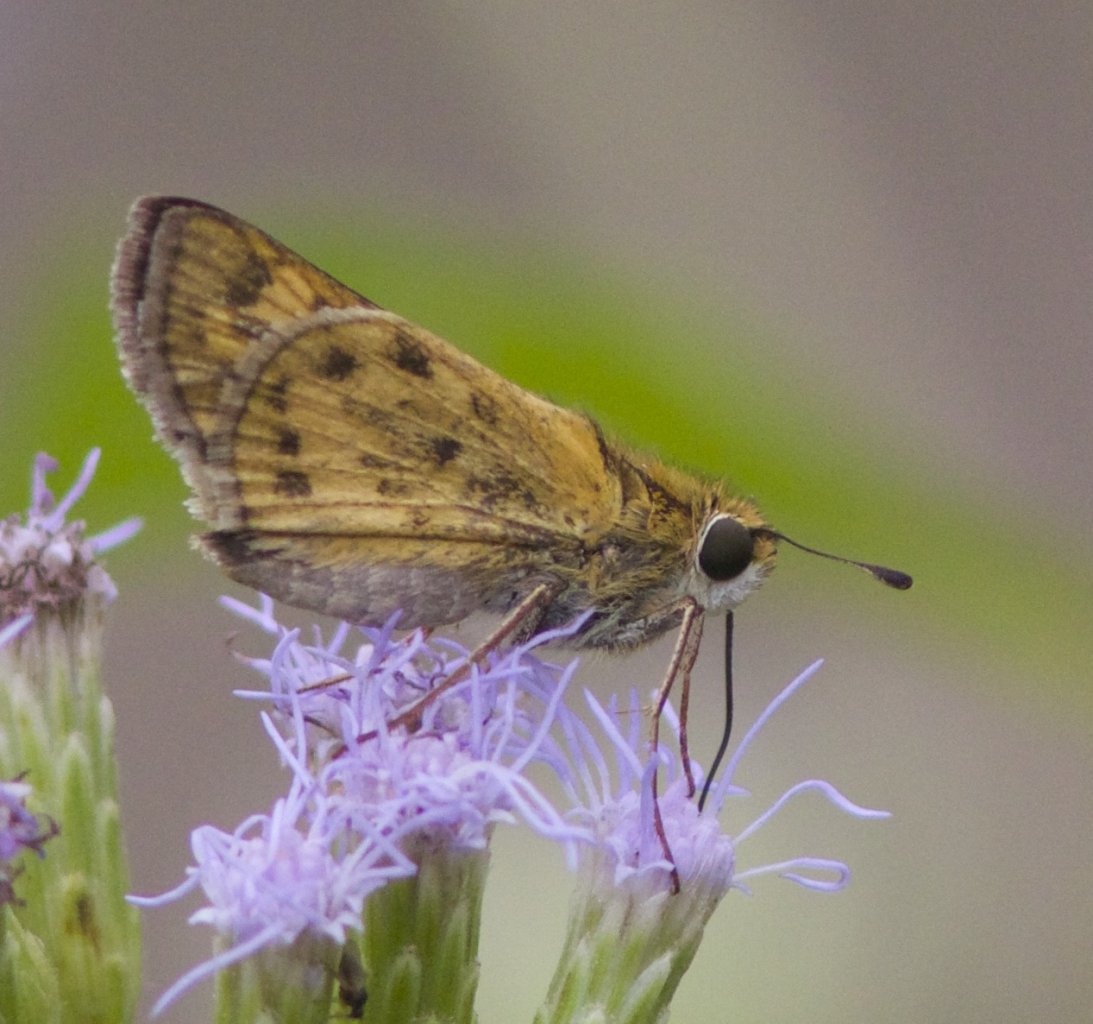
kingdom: Animalia
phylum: Arthropoda
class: Insecta
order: Lepidoptera
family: Hesperiidae
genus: Hylephila
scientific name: Hylephila phyleus
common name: Fiery Skipper
